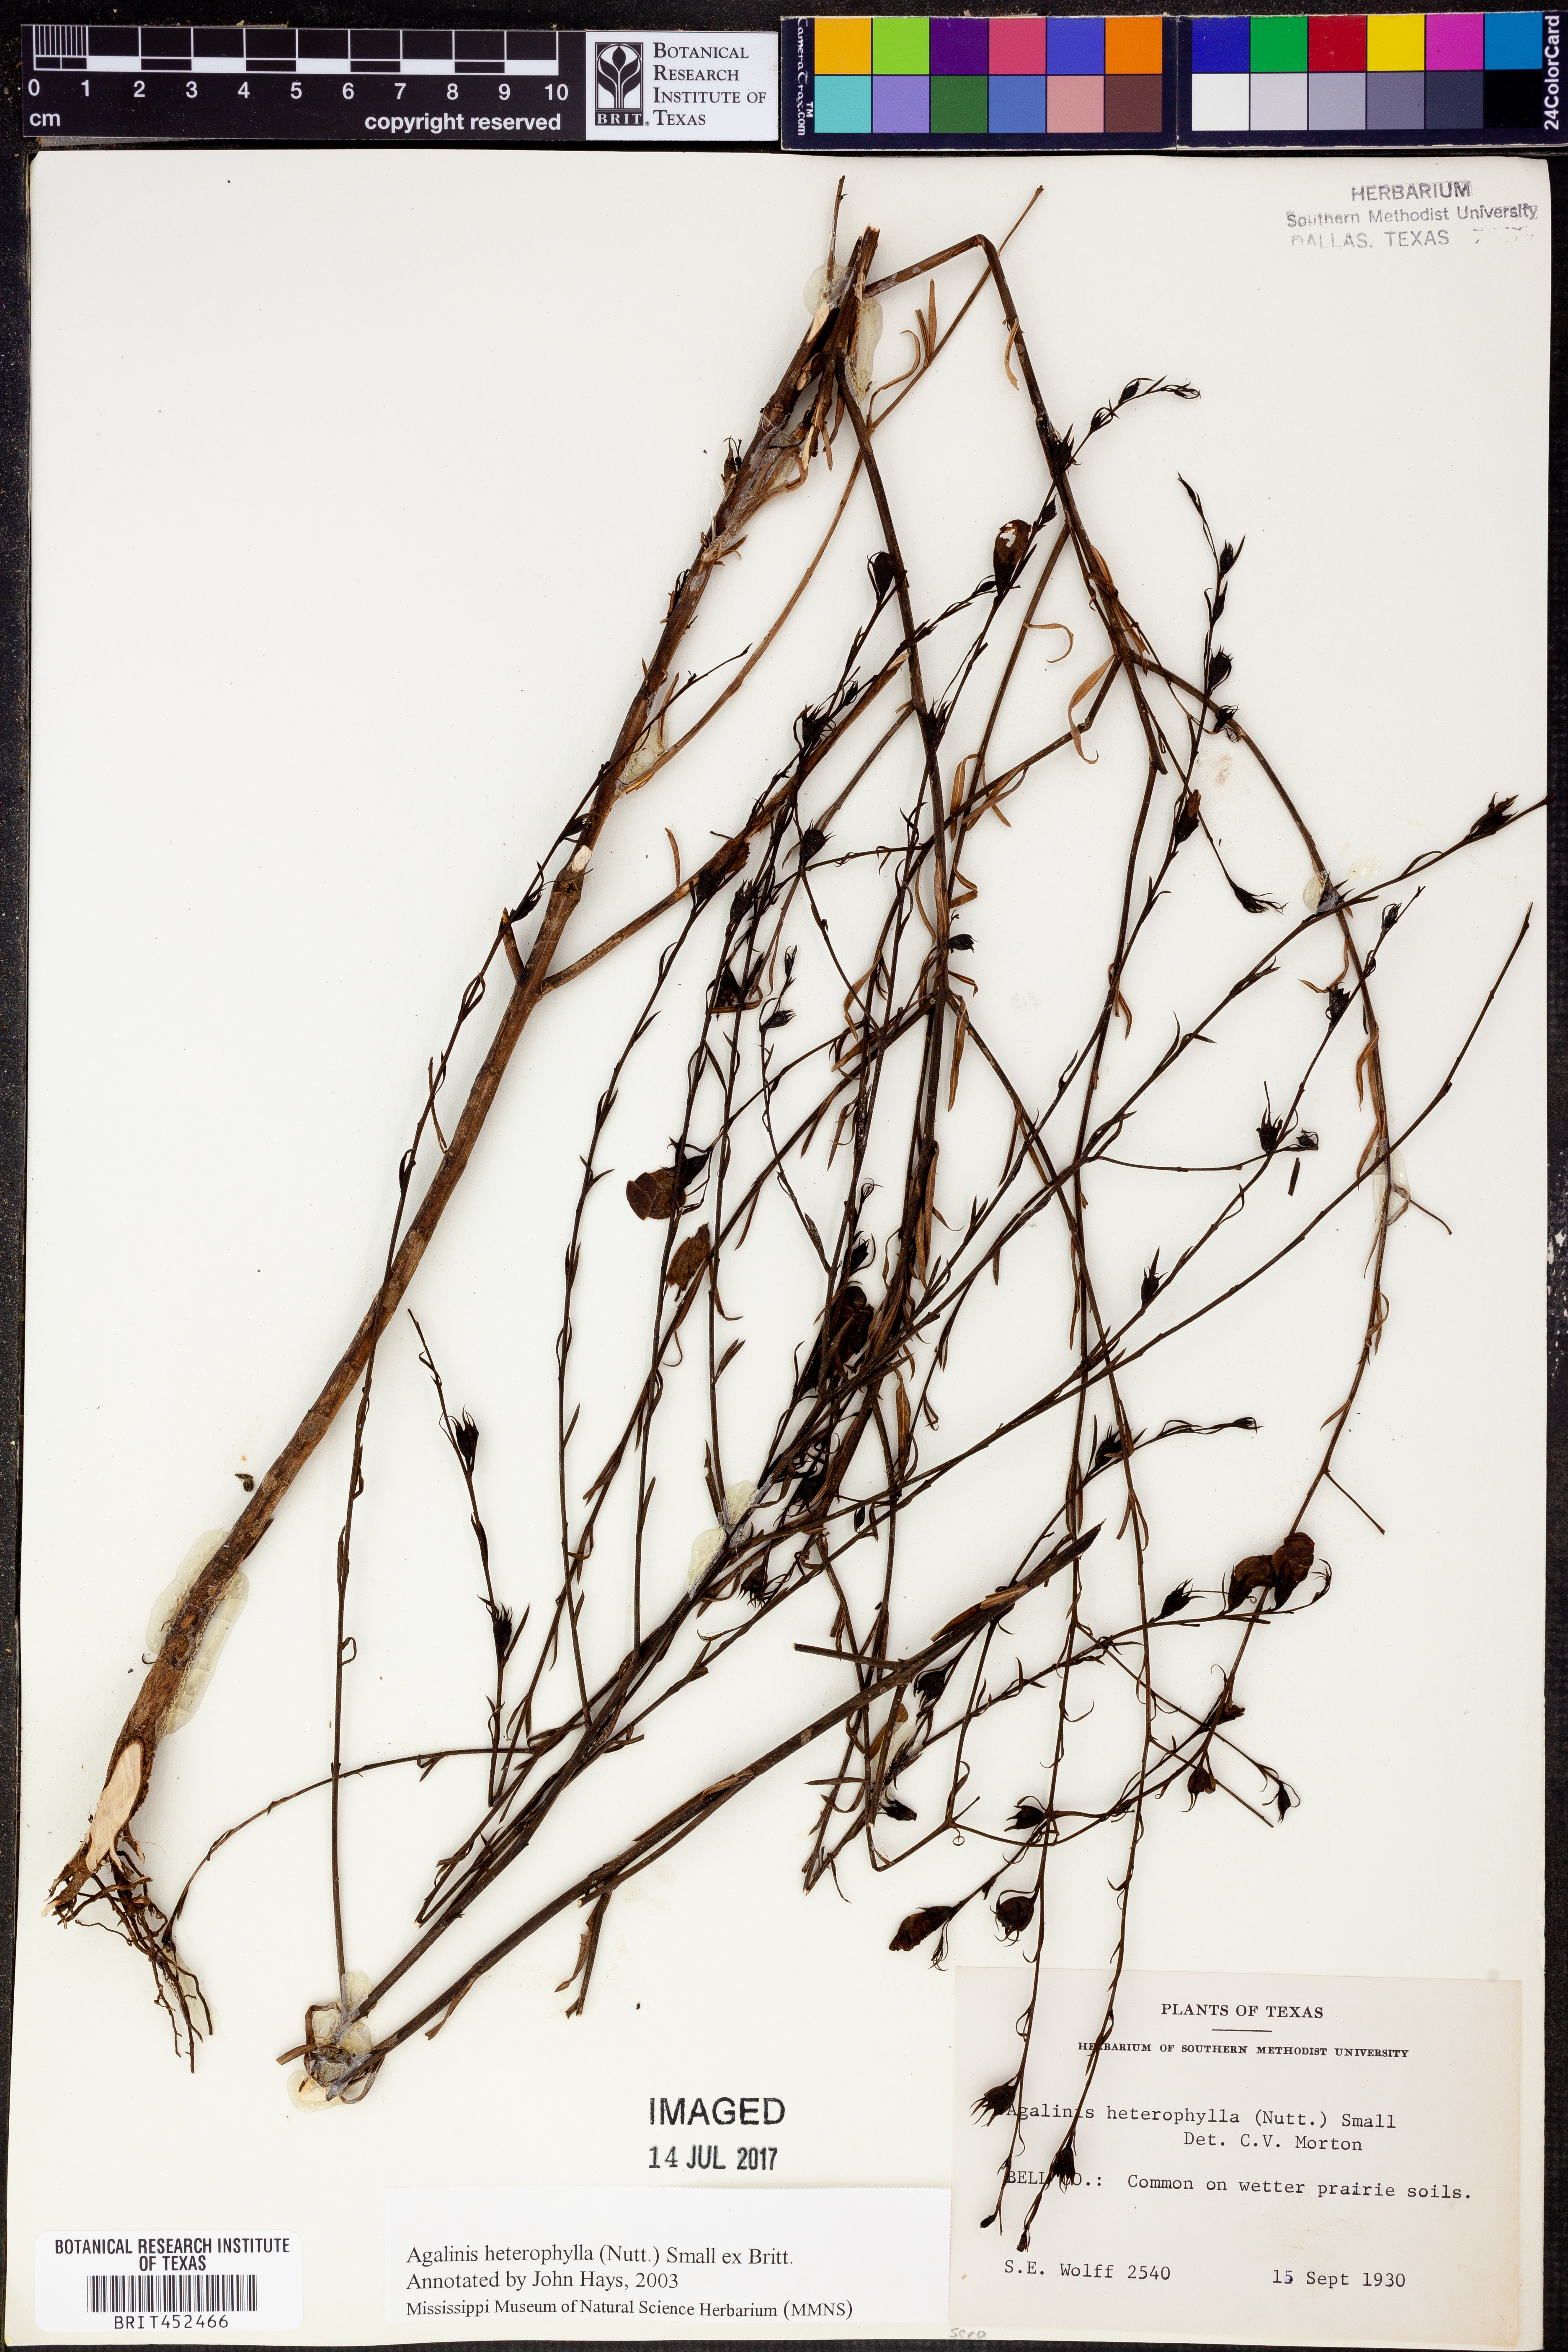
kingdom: Plantae
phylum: Tracheophyta
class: Magnoliopsida
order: Lamiales
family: Orobanchaceae
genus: Agalinis
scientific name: Agalinis heterophylla
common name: Prairie agalinis
